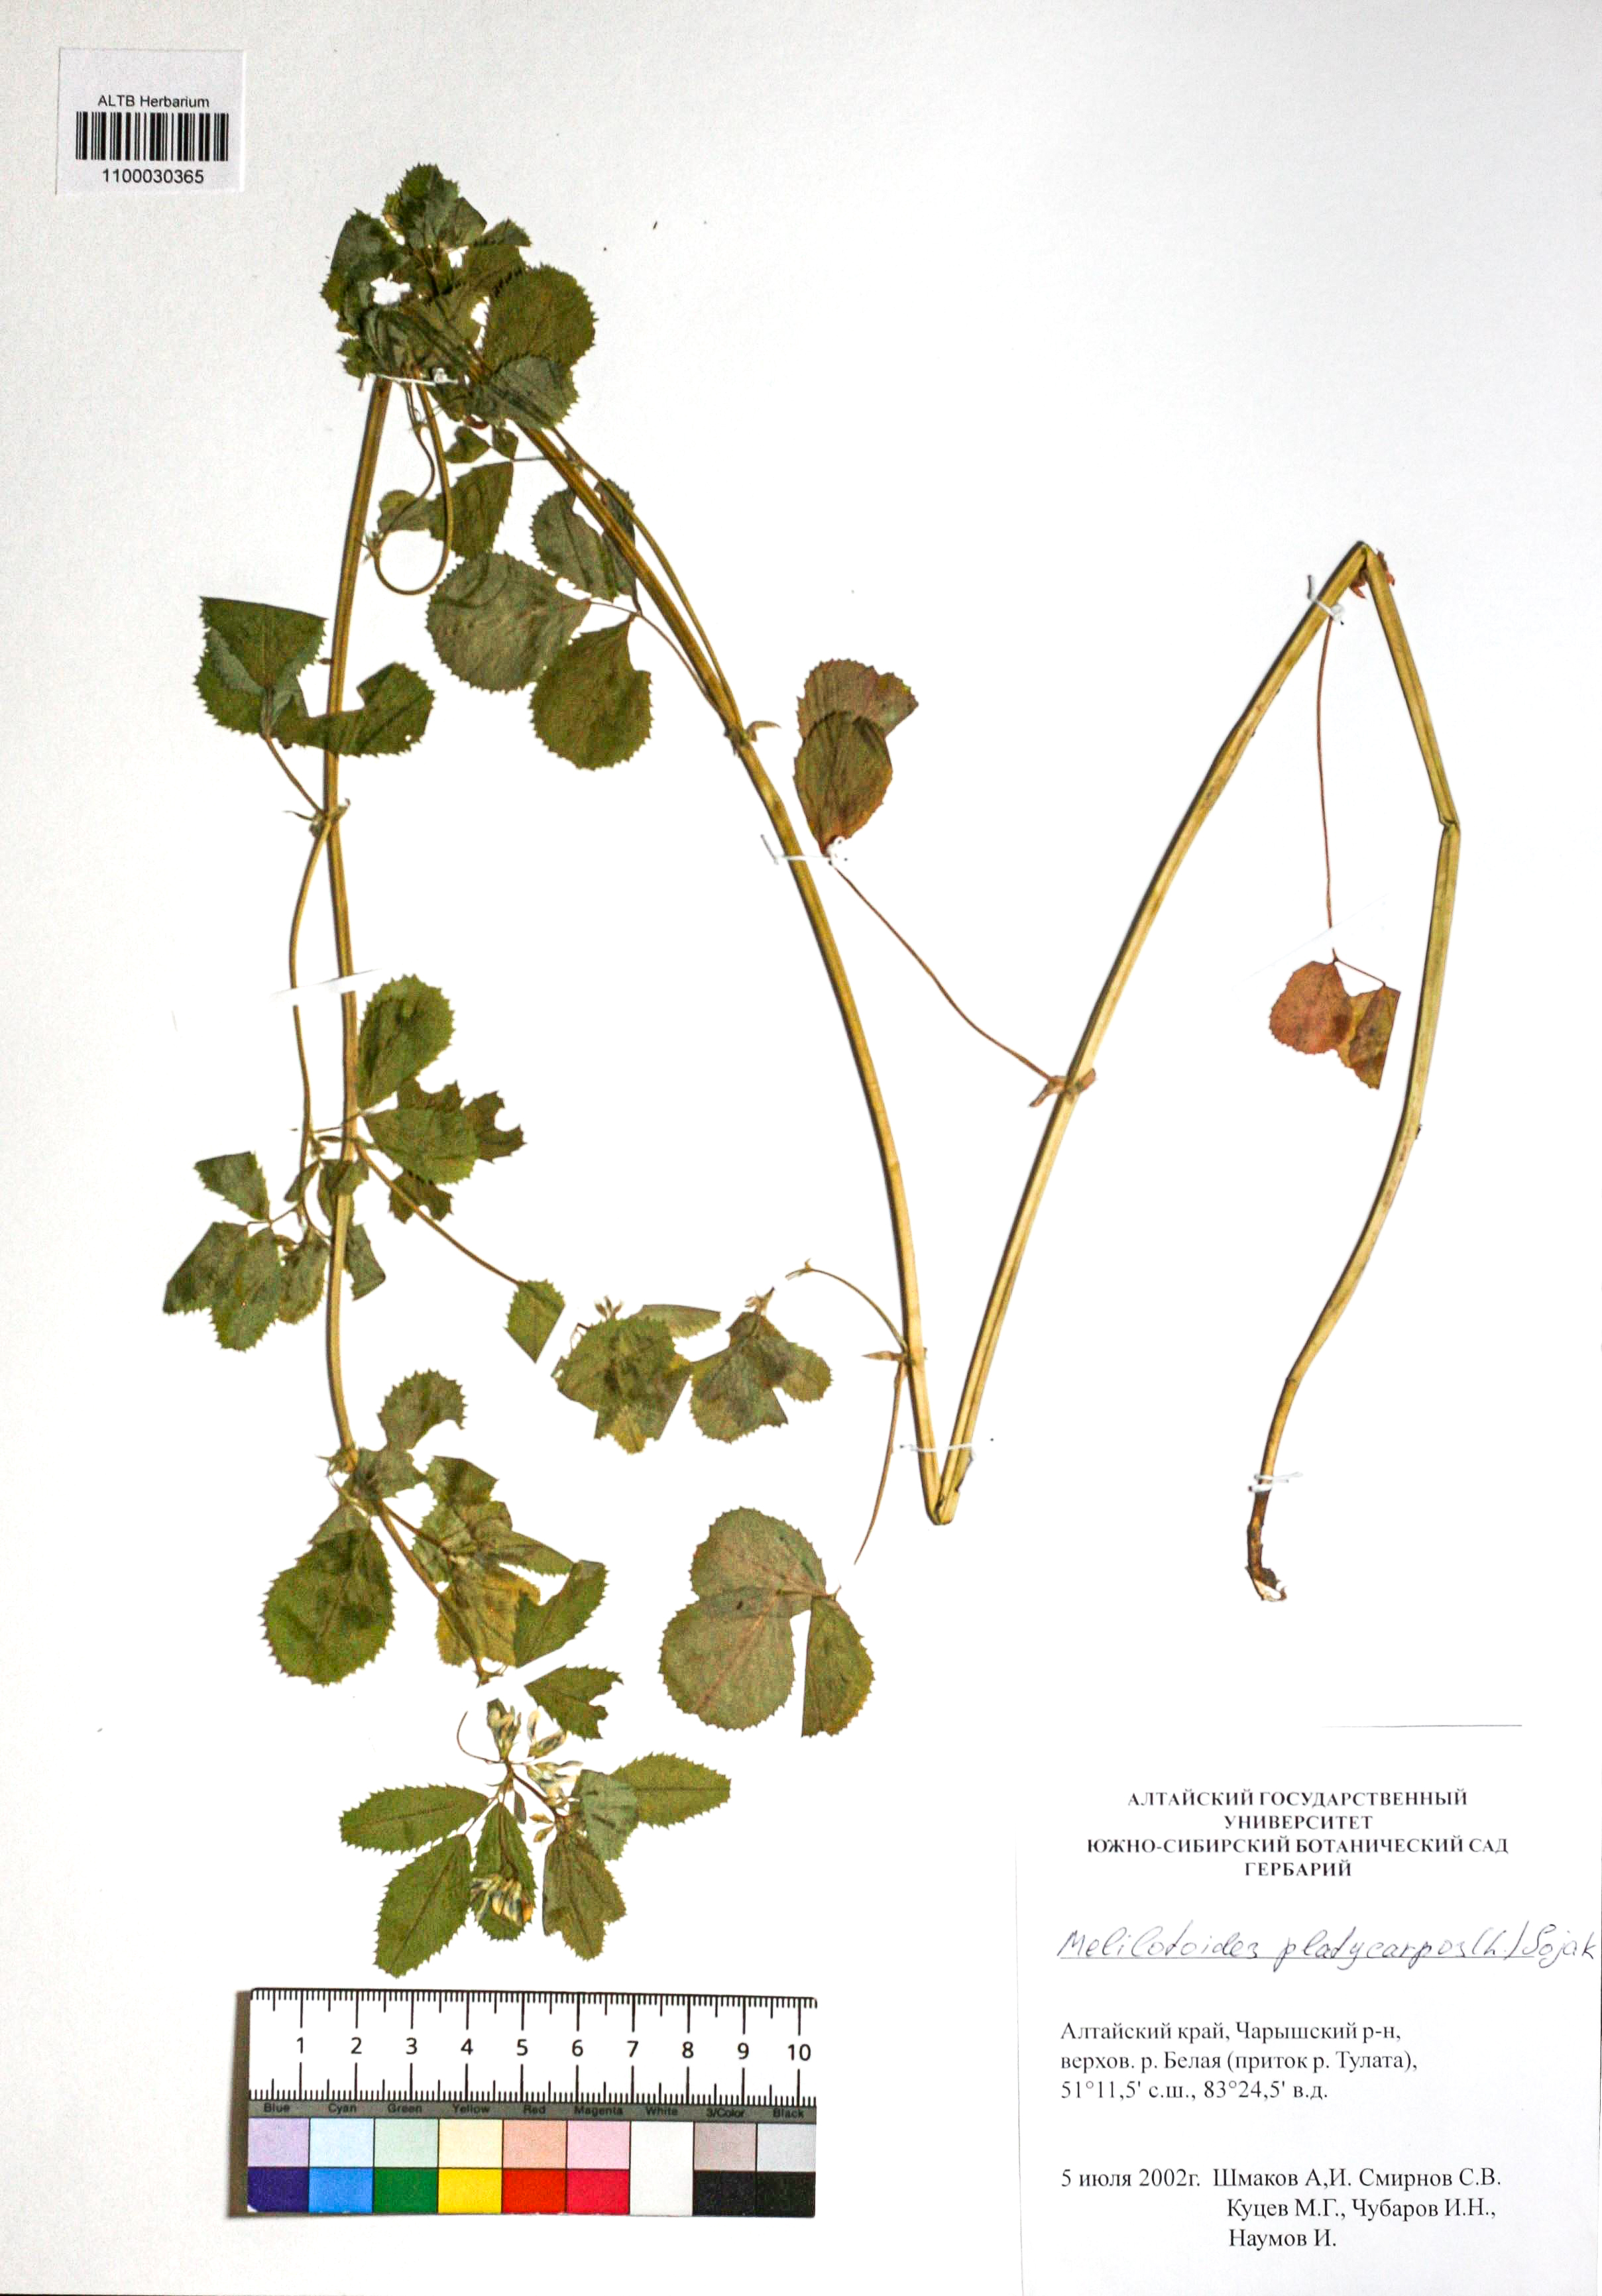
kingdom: Plantae
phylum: Tracheophyta
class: Magnoliopsida
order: Fabales
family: Fabaceae
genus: Medicago
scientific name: Medicago platycarpos
